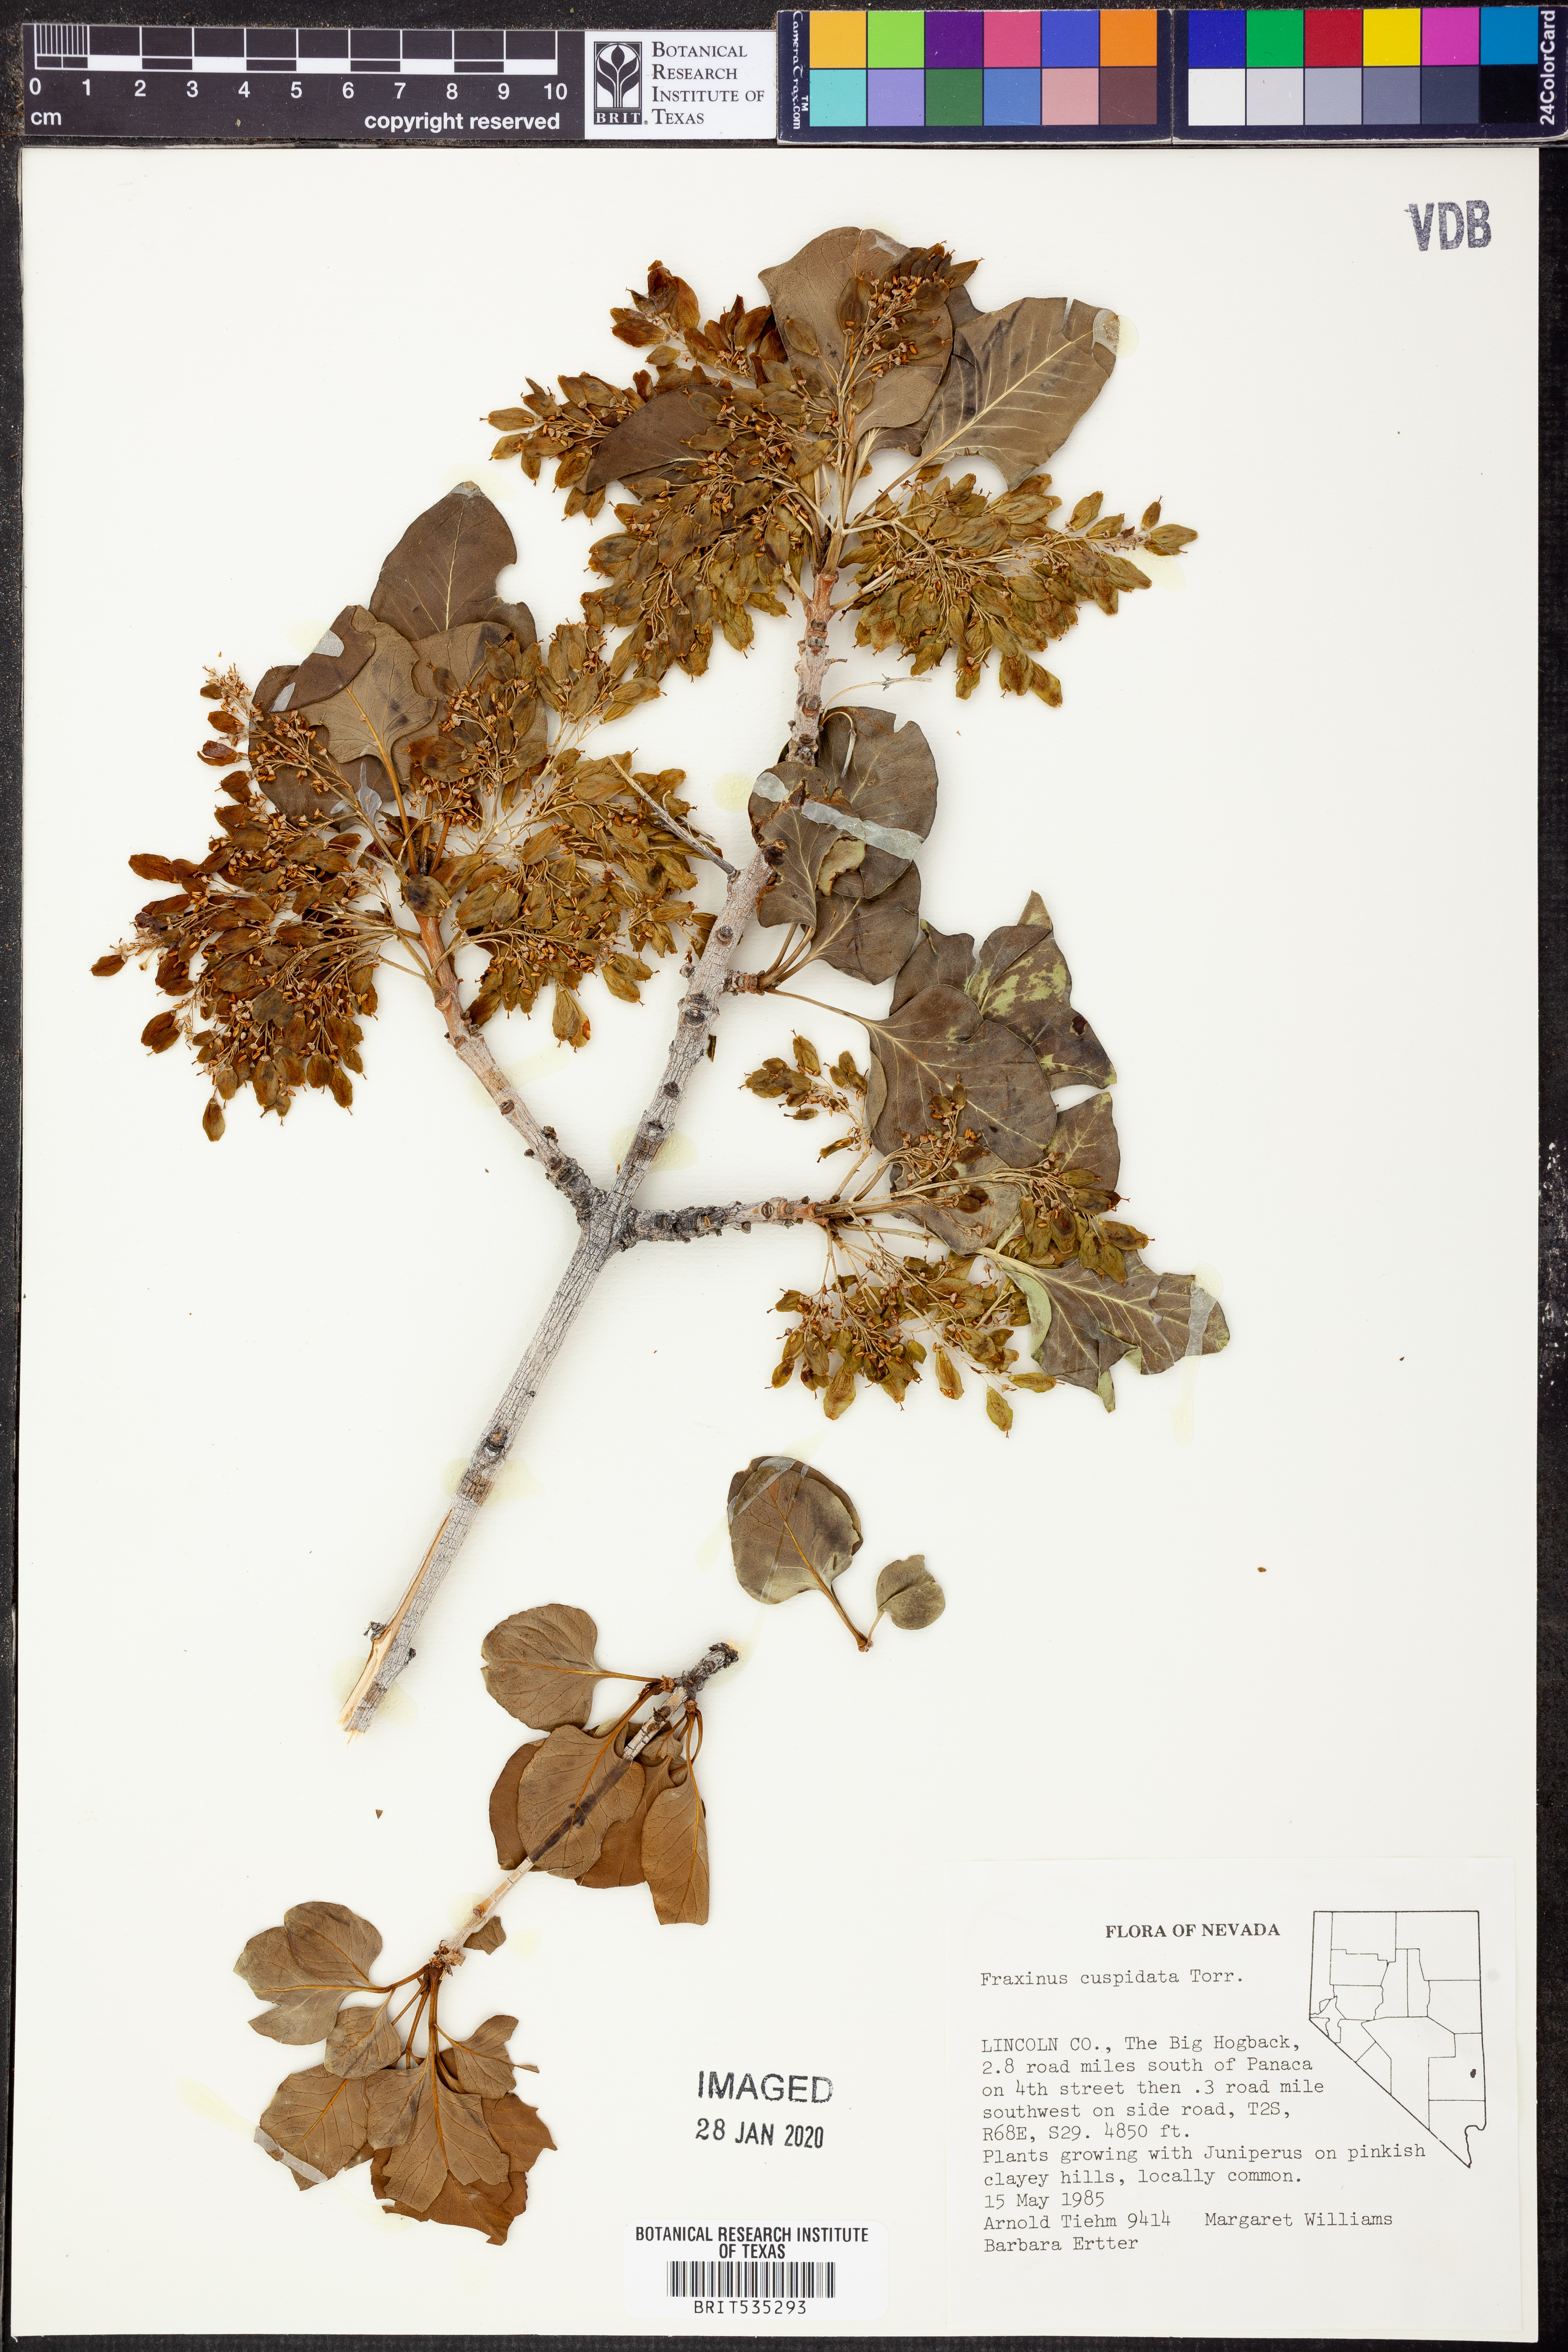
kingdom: Plantae
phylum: Tracheophyta
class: Magnoliopsida
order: Lamiales
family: Oleaceae
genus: Fraxinus
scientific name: Fraxinus cuspidata
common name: Fragrant ash
